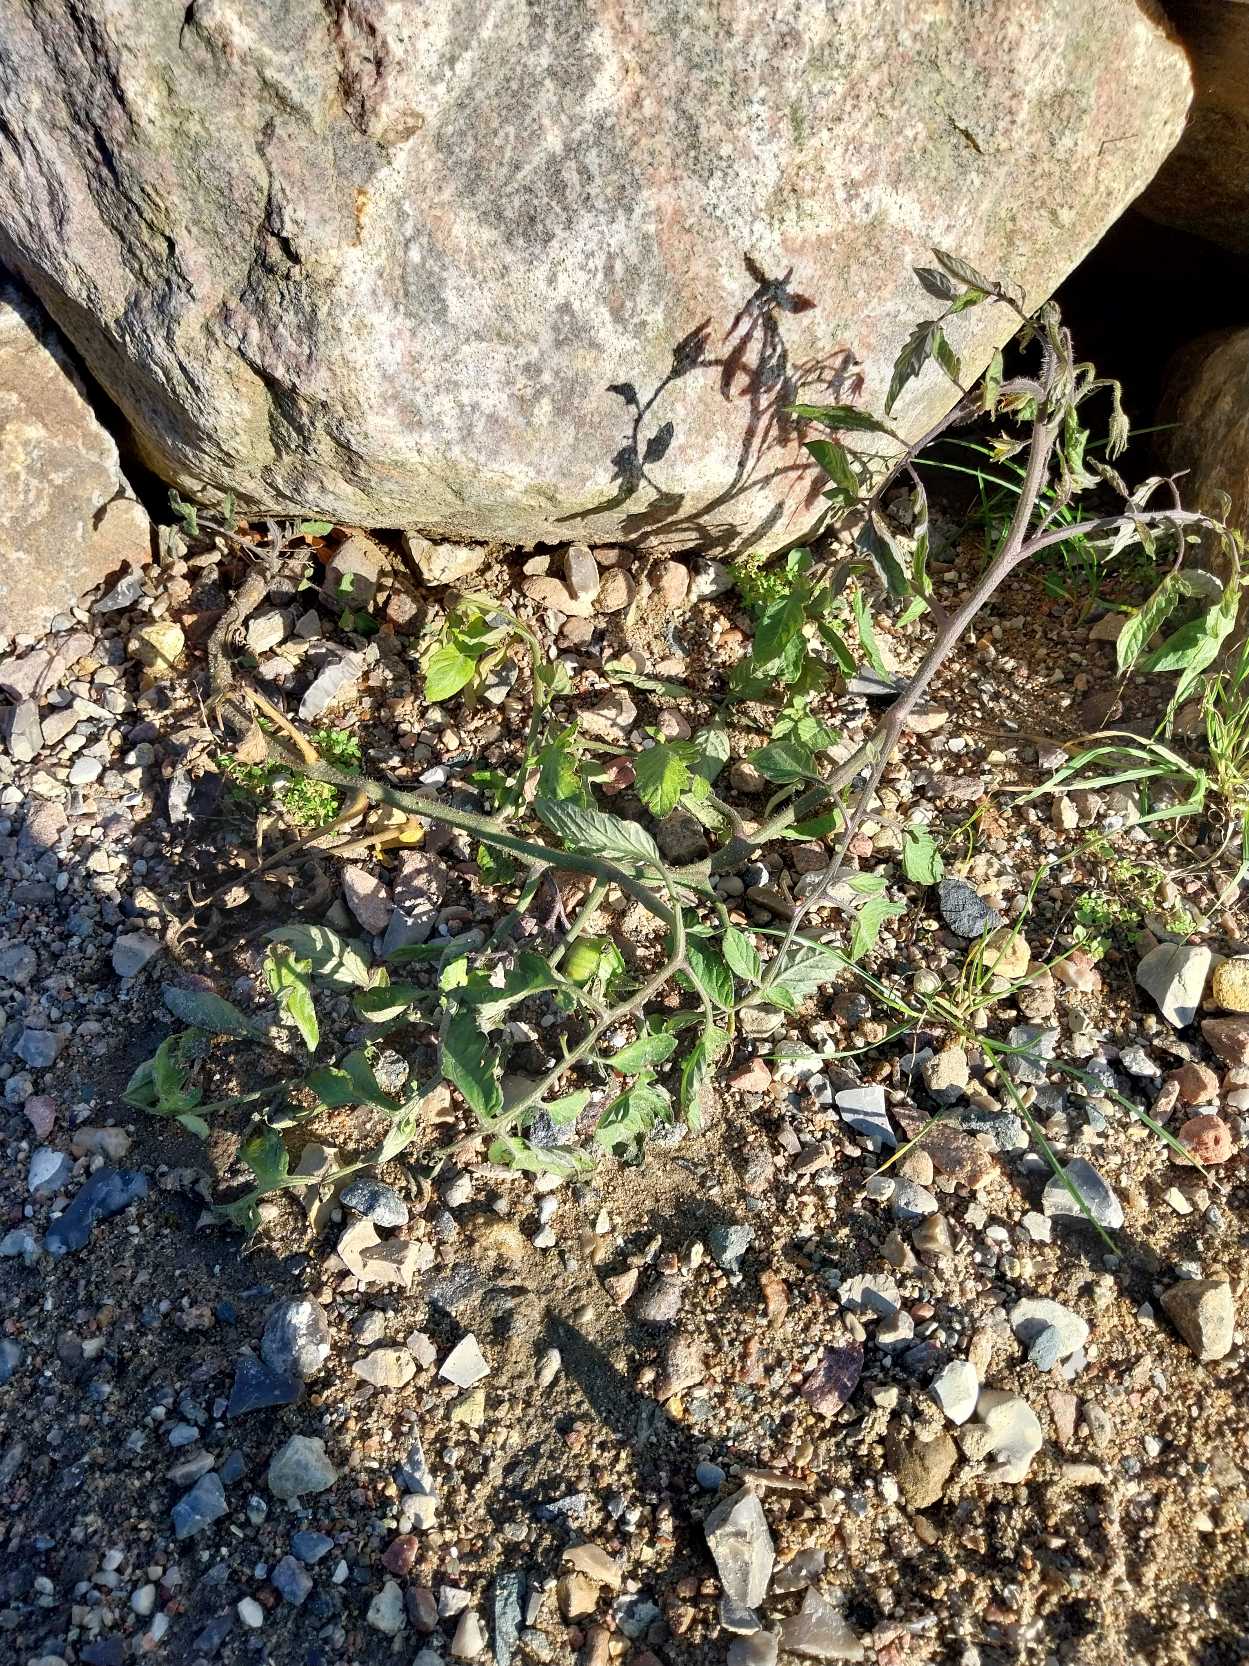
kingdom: Plantae
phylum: Tracheophyta
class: Magnoliopsida
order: Solanales
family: Solanaceae
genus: Solanum
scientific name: Solanum lycopersicum
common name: Tomat
